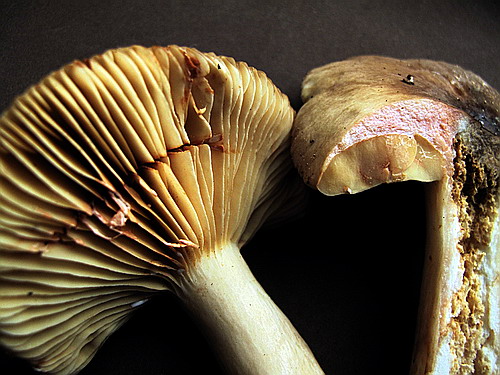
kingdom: Fungi
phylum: Basidiomycota
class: Agaricomycetes
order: Russulales
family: Russulaceae
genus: Lactarius
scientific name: Lactarius romagnesii
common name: fjernbladet mælkehat
